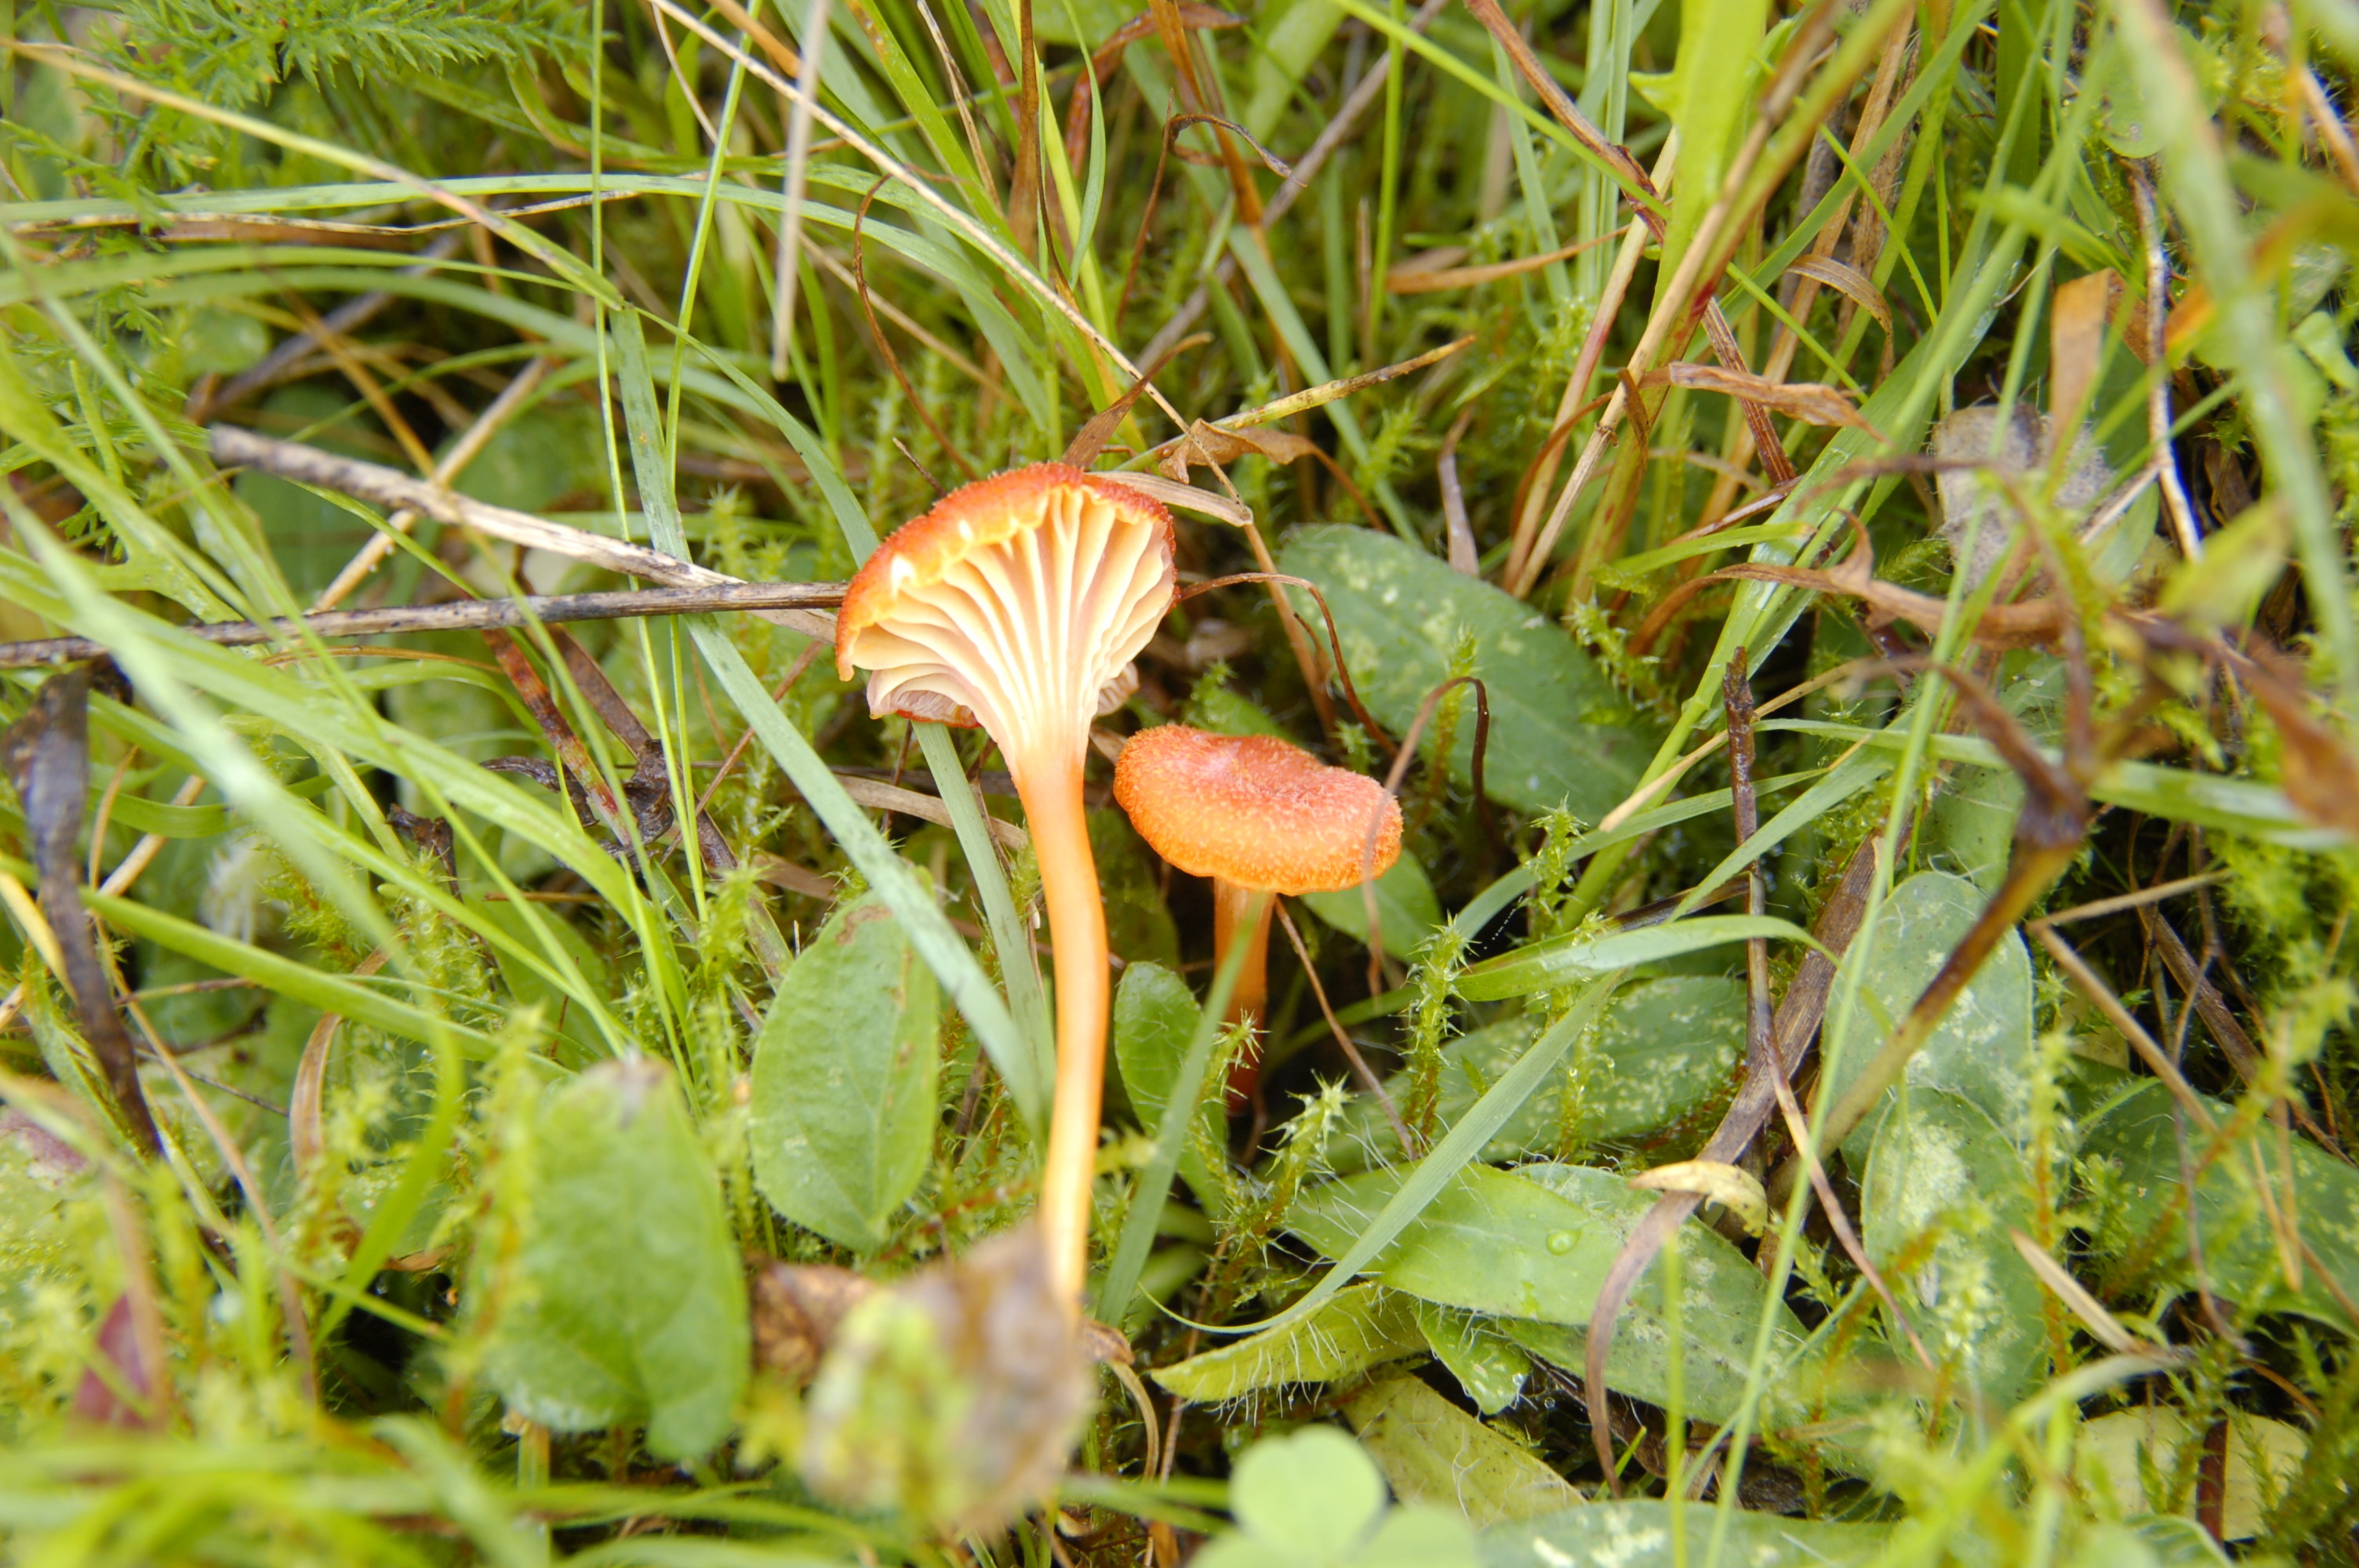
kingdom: Fungi
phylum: Basidiomycota
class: Agaricomycetes
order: Agaricales
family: Hygrophoraceae
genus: Hygrocybe
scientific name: Hygrocybe cantharellus
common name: Goblet waxcap
